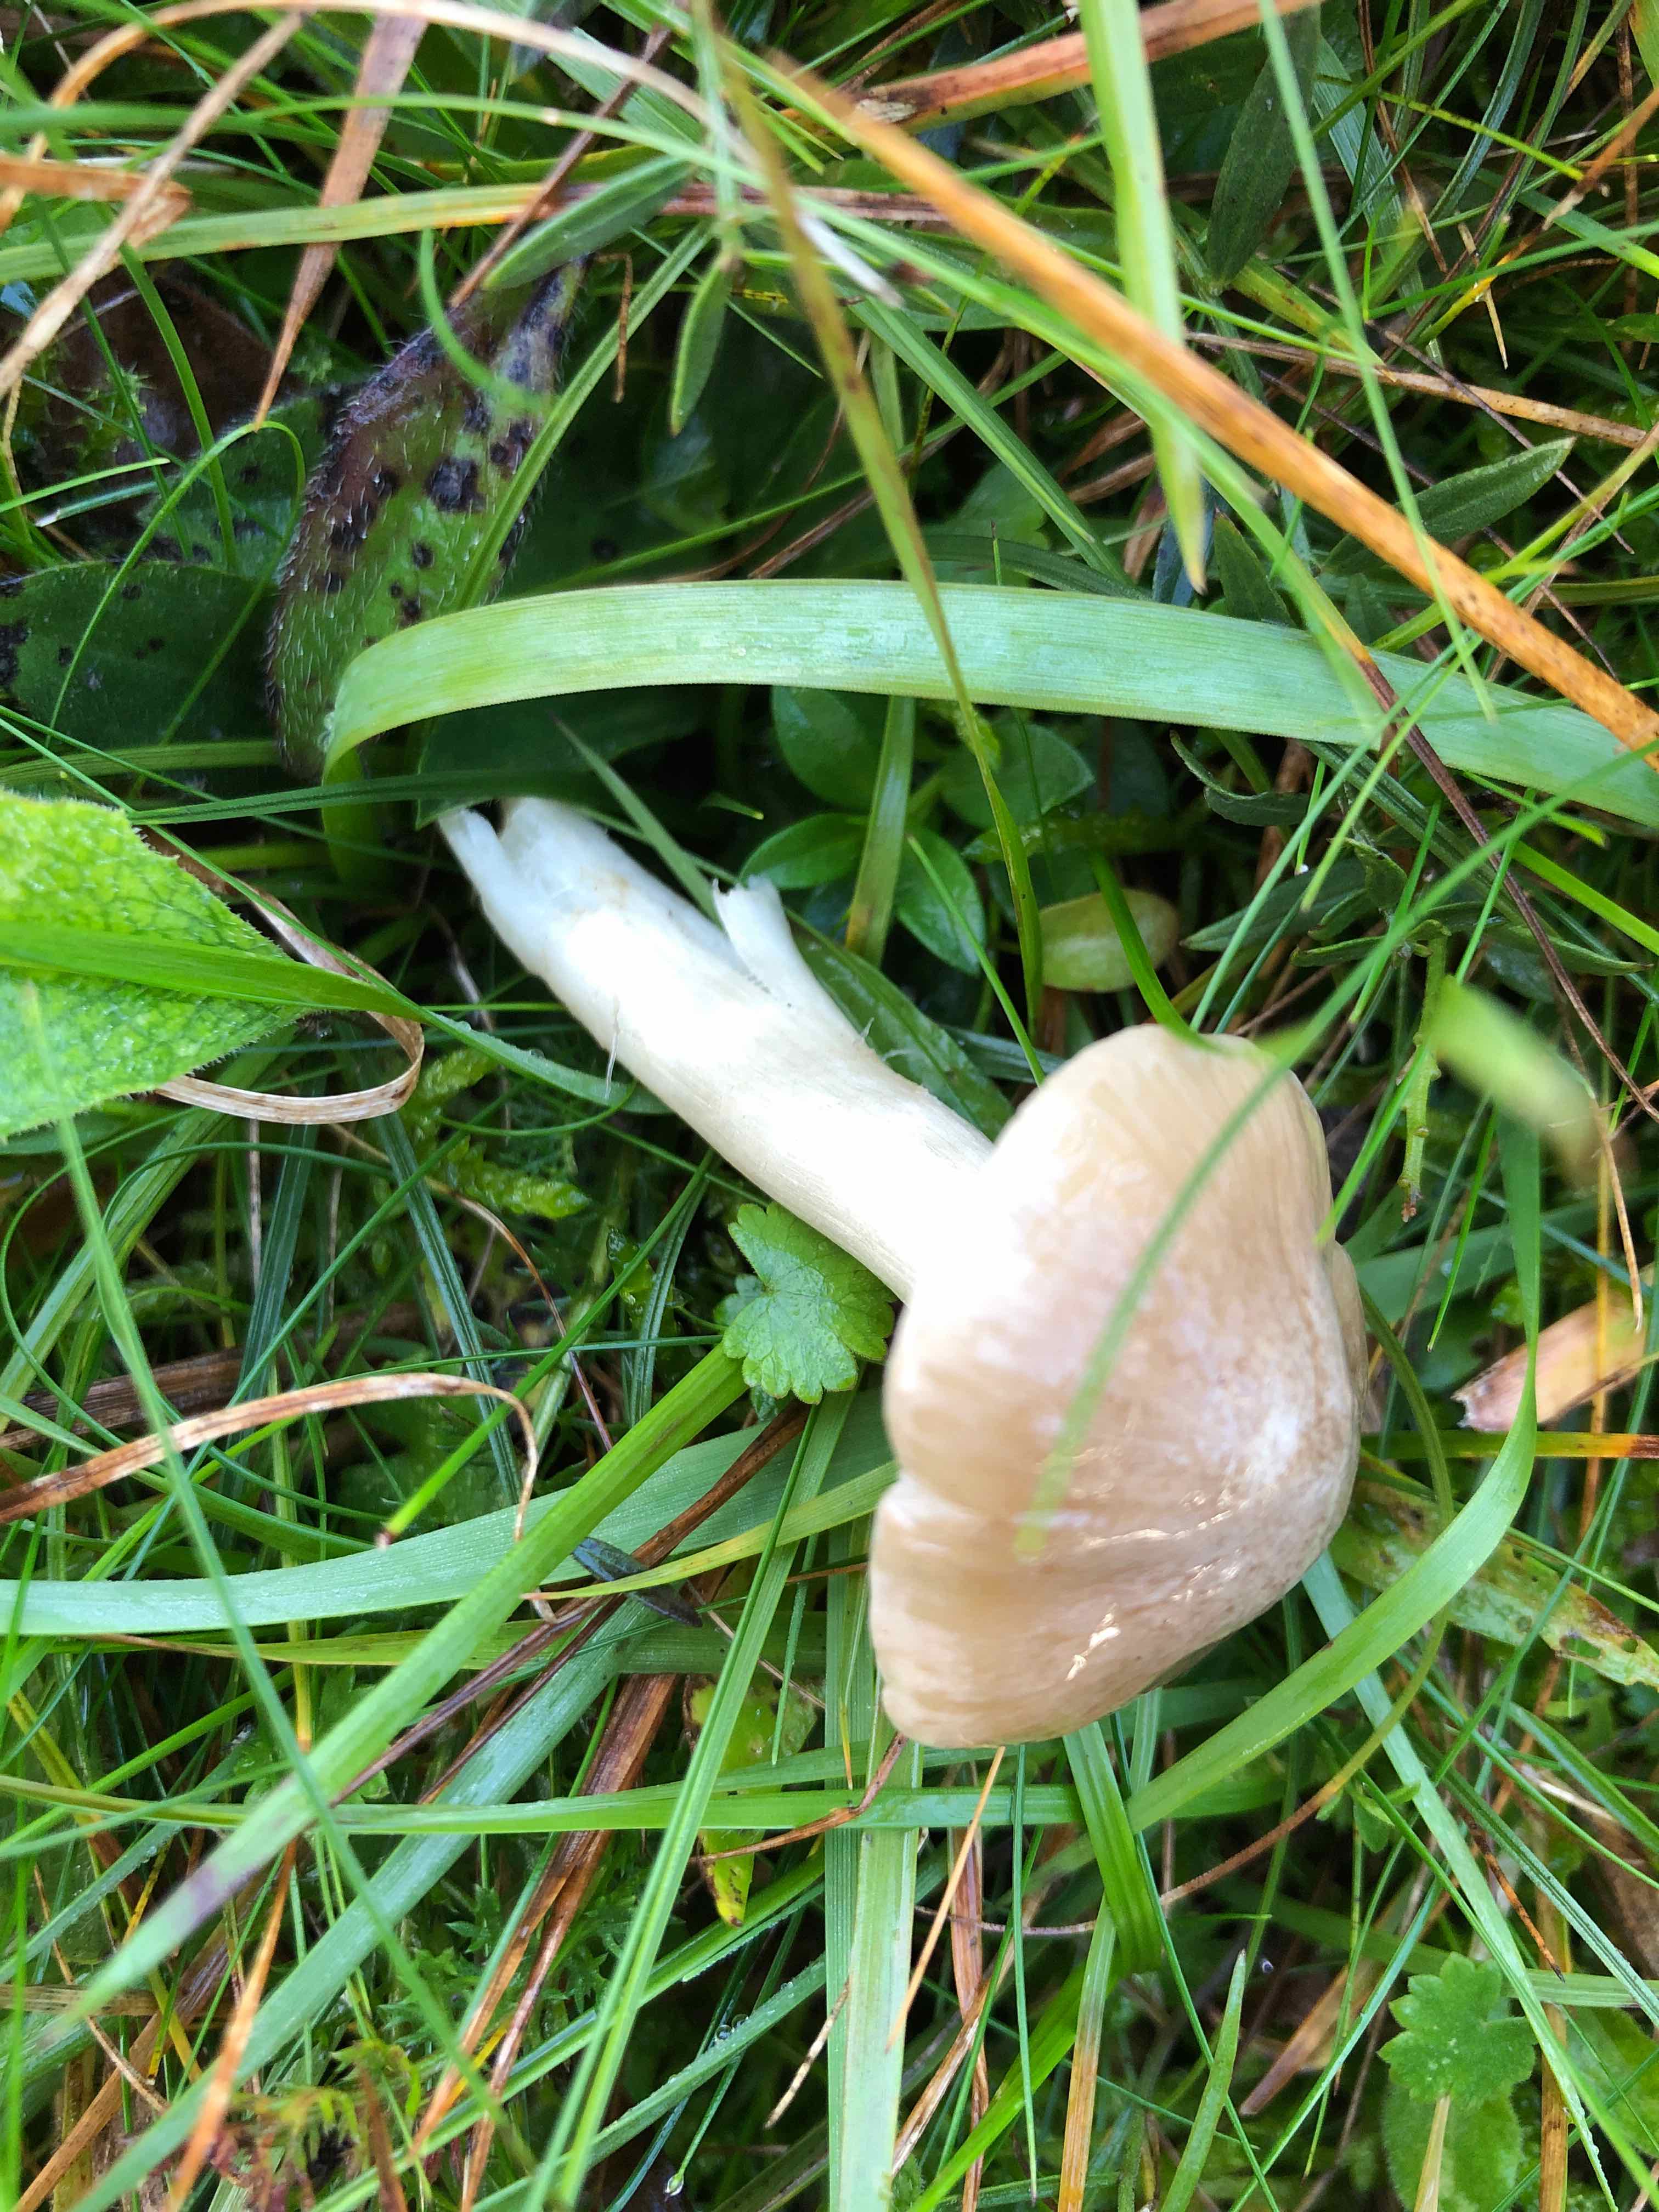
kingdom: Fungi
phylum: Basidiomycota
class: Agaricomycetes
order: Agaricales
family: Entolomataceae
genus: Entoloma
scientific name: Entoloma prunuloides
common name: mel-rødblad
